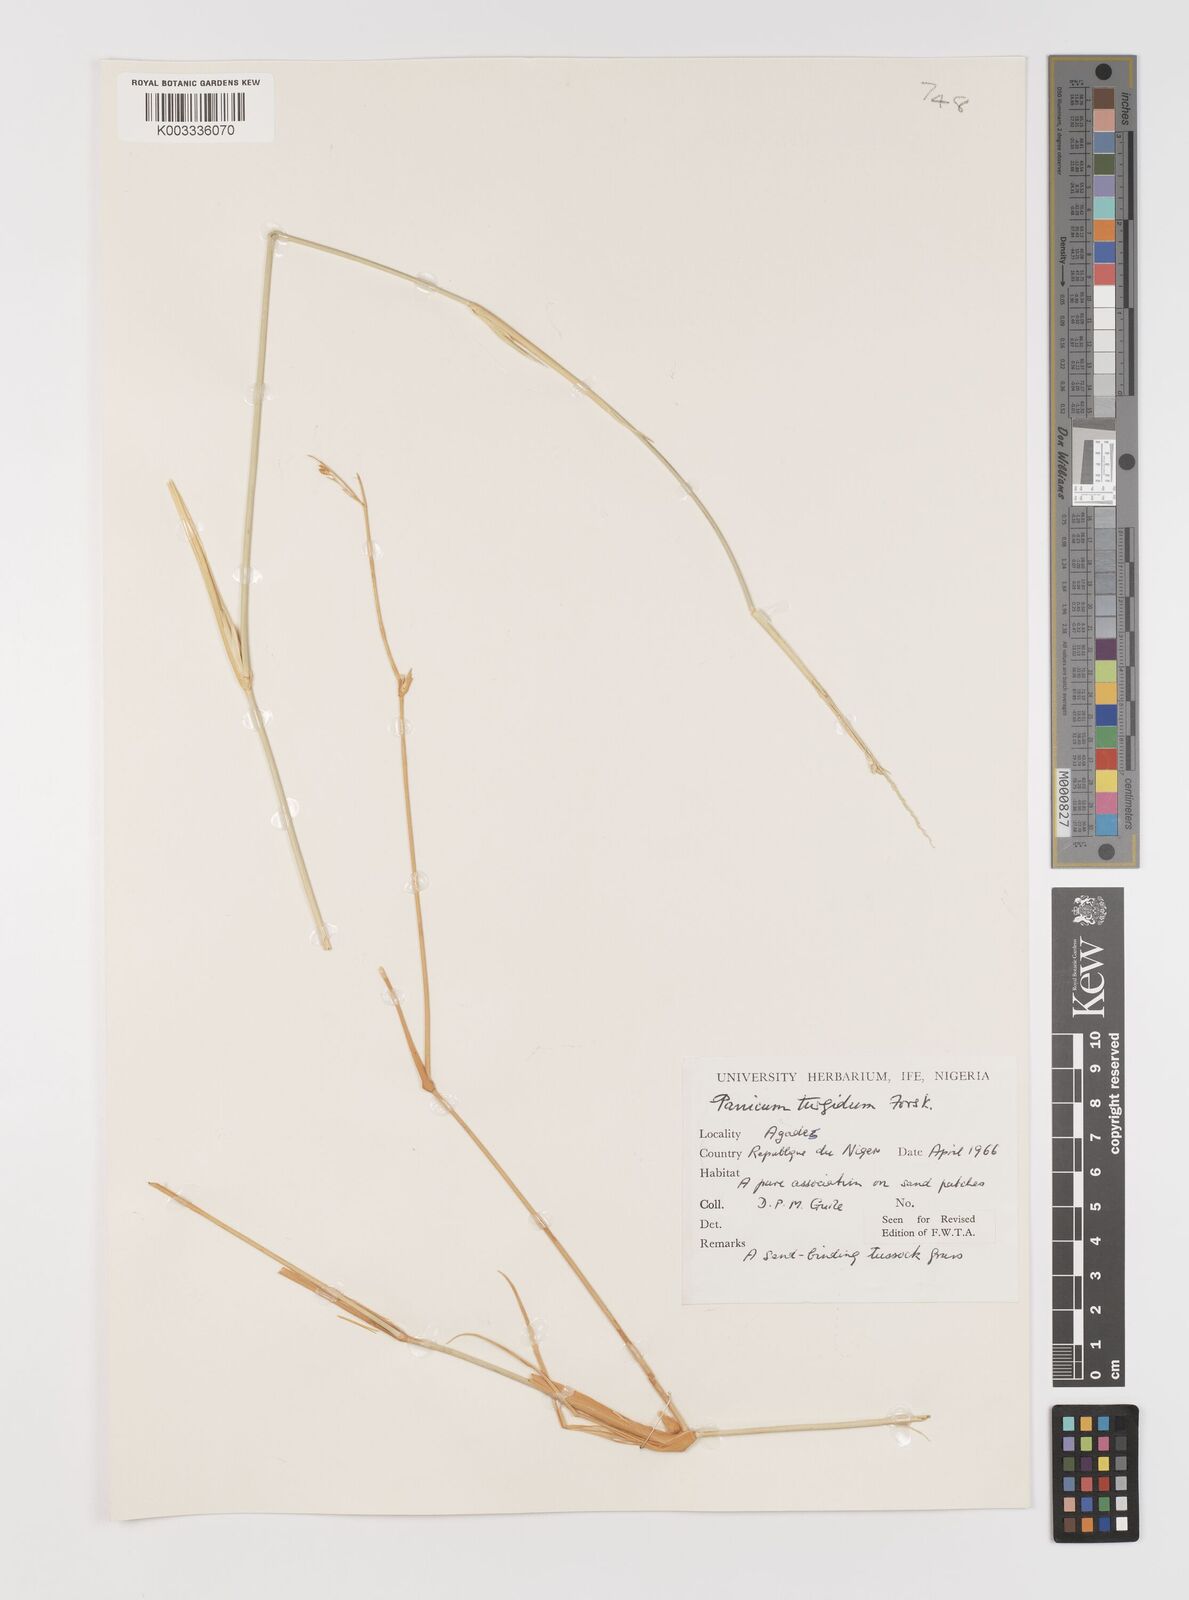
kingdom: Plantae
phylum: Tracheophyta
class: Liliopsida
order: Poales
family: Poaceae
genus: Panicum
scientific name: Panicum turgidum
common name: Desert grass
